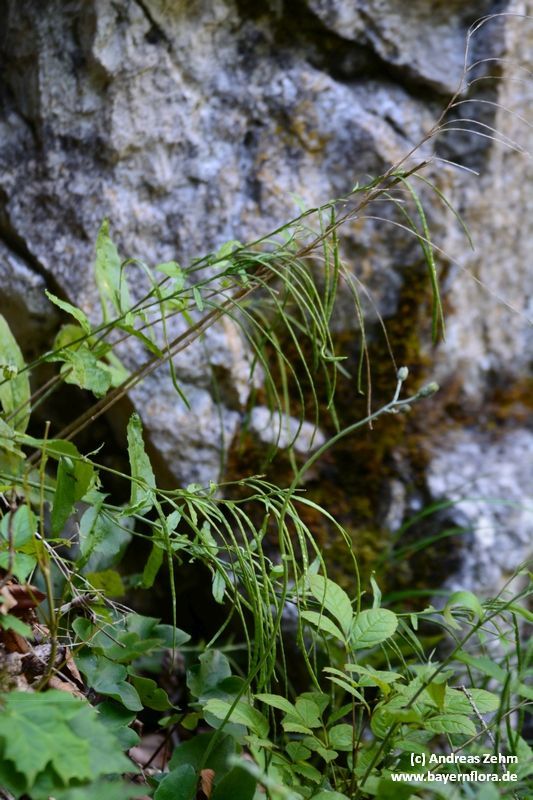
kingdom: Plantae
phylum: Tracheophyta
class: Magnoliopsida
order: Brassicales
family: Brassicaceae
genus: Pseudoturritis
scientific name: Pseudoturritis turrita
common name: Tower cress
